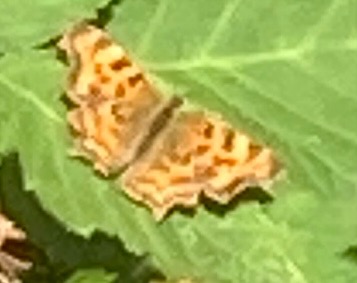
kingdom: Animalia
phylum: Arthropoda
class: Insecta
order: Lepidoptera
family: Nymphalidae
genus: Polygonia
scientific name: Polygonia c-album
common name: Det hvide C
